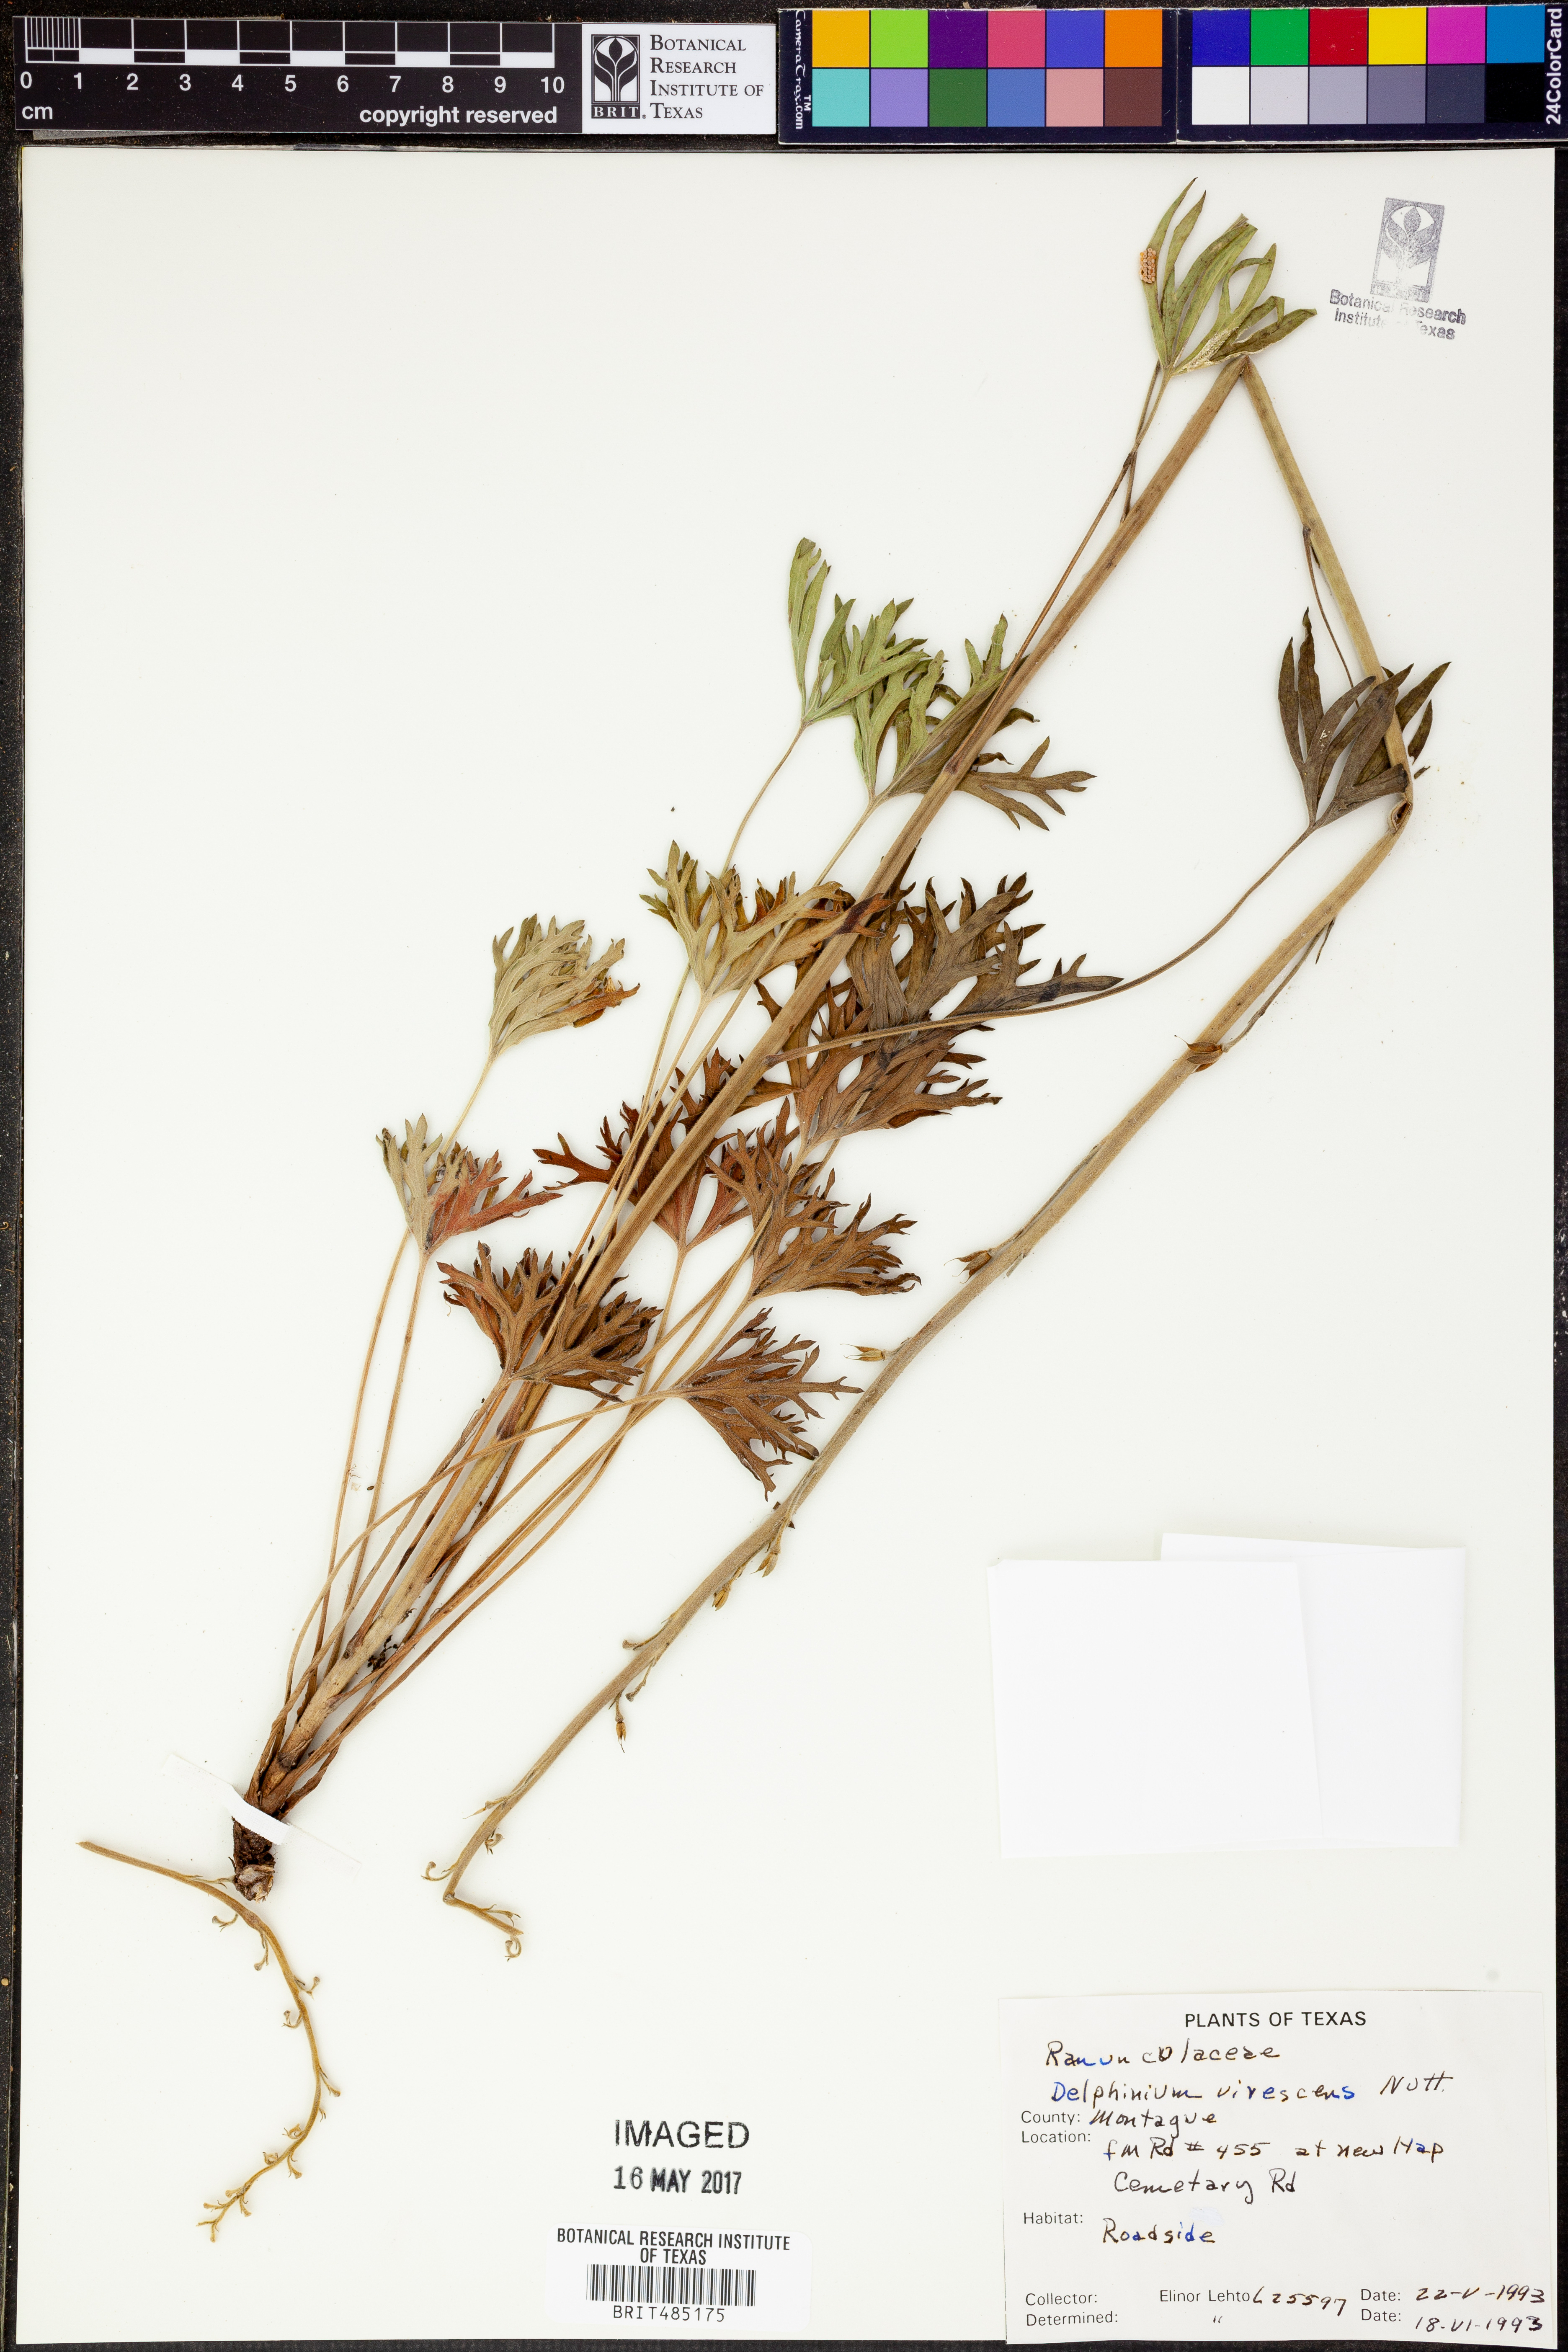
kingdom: Plantae
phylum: Tracheophyta
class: Magnoliopsida
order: Ranunculales
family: Ranunculaceae
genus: Delphinium
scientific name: Delphinium carolinianum
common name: Carolina larkspur
